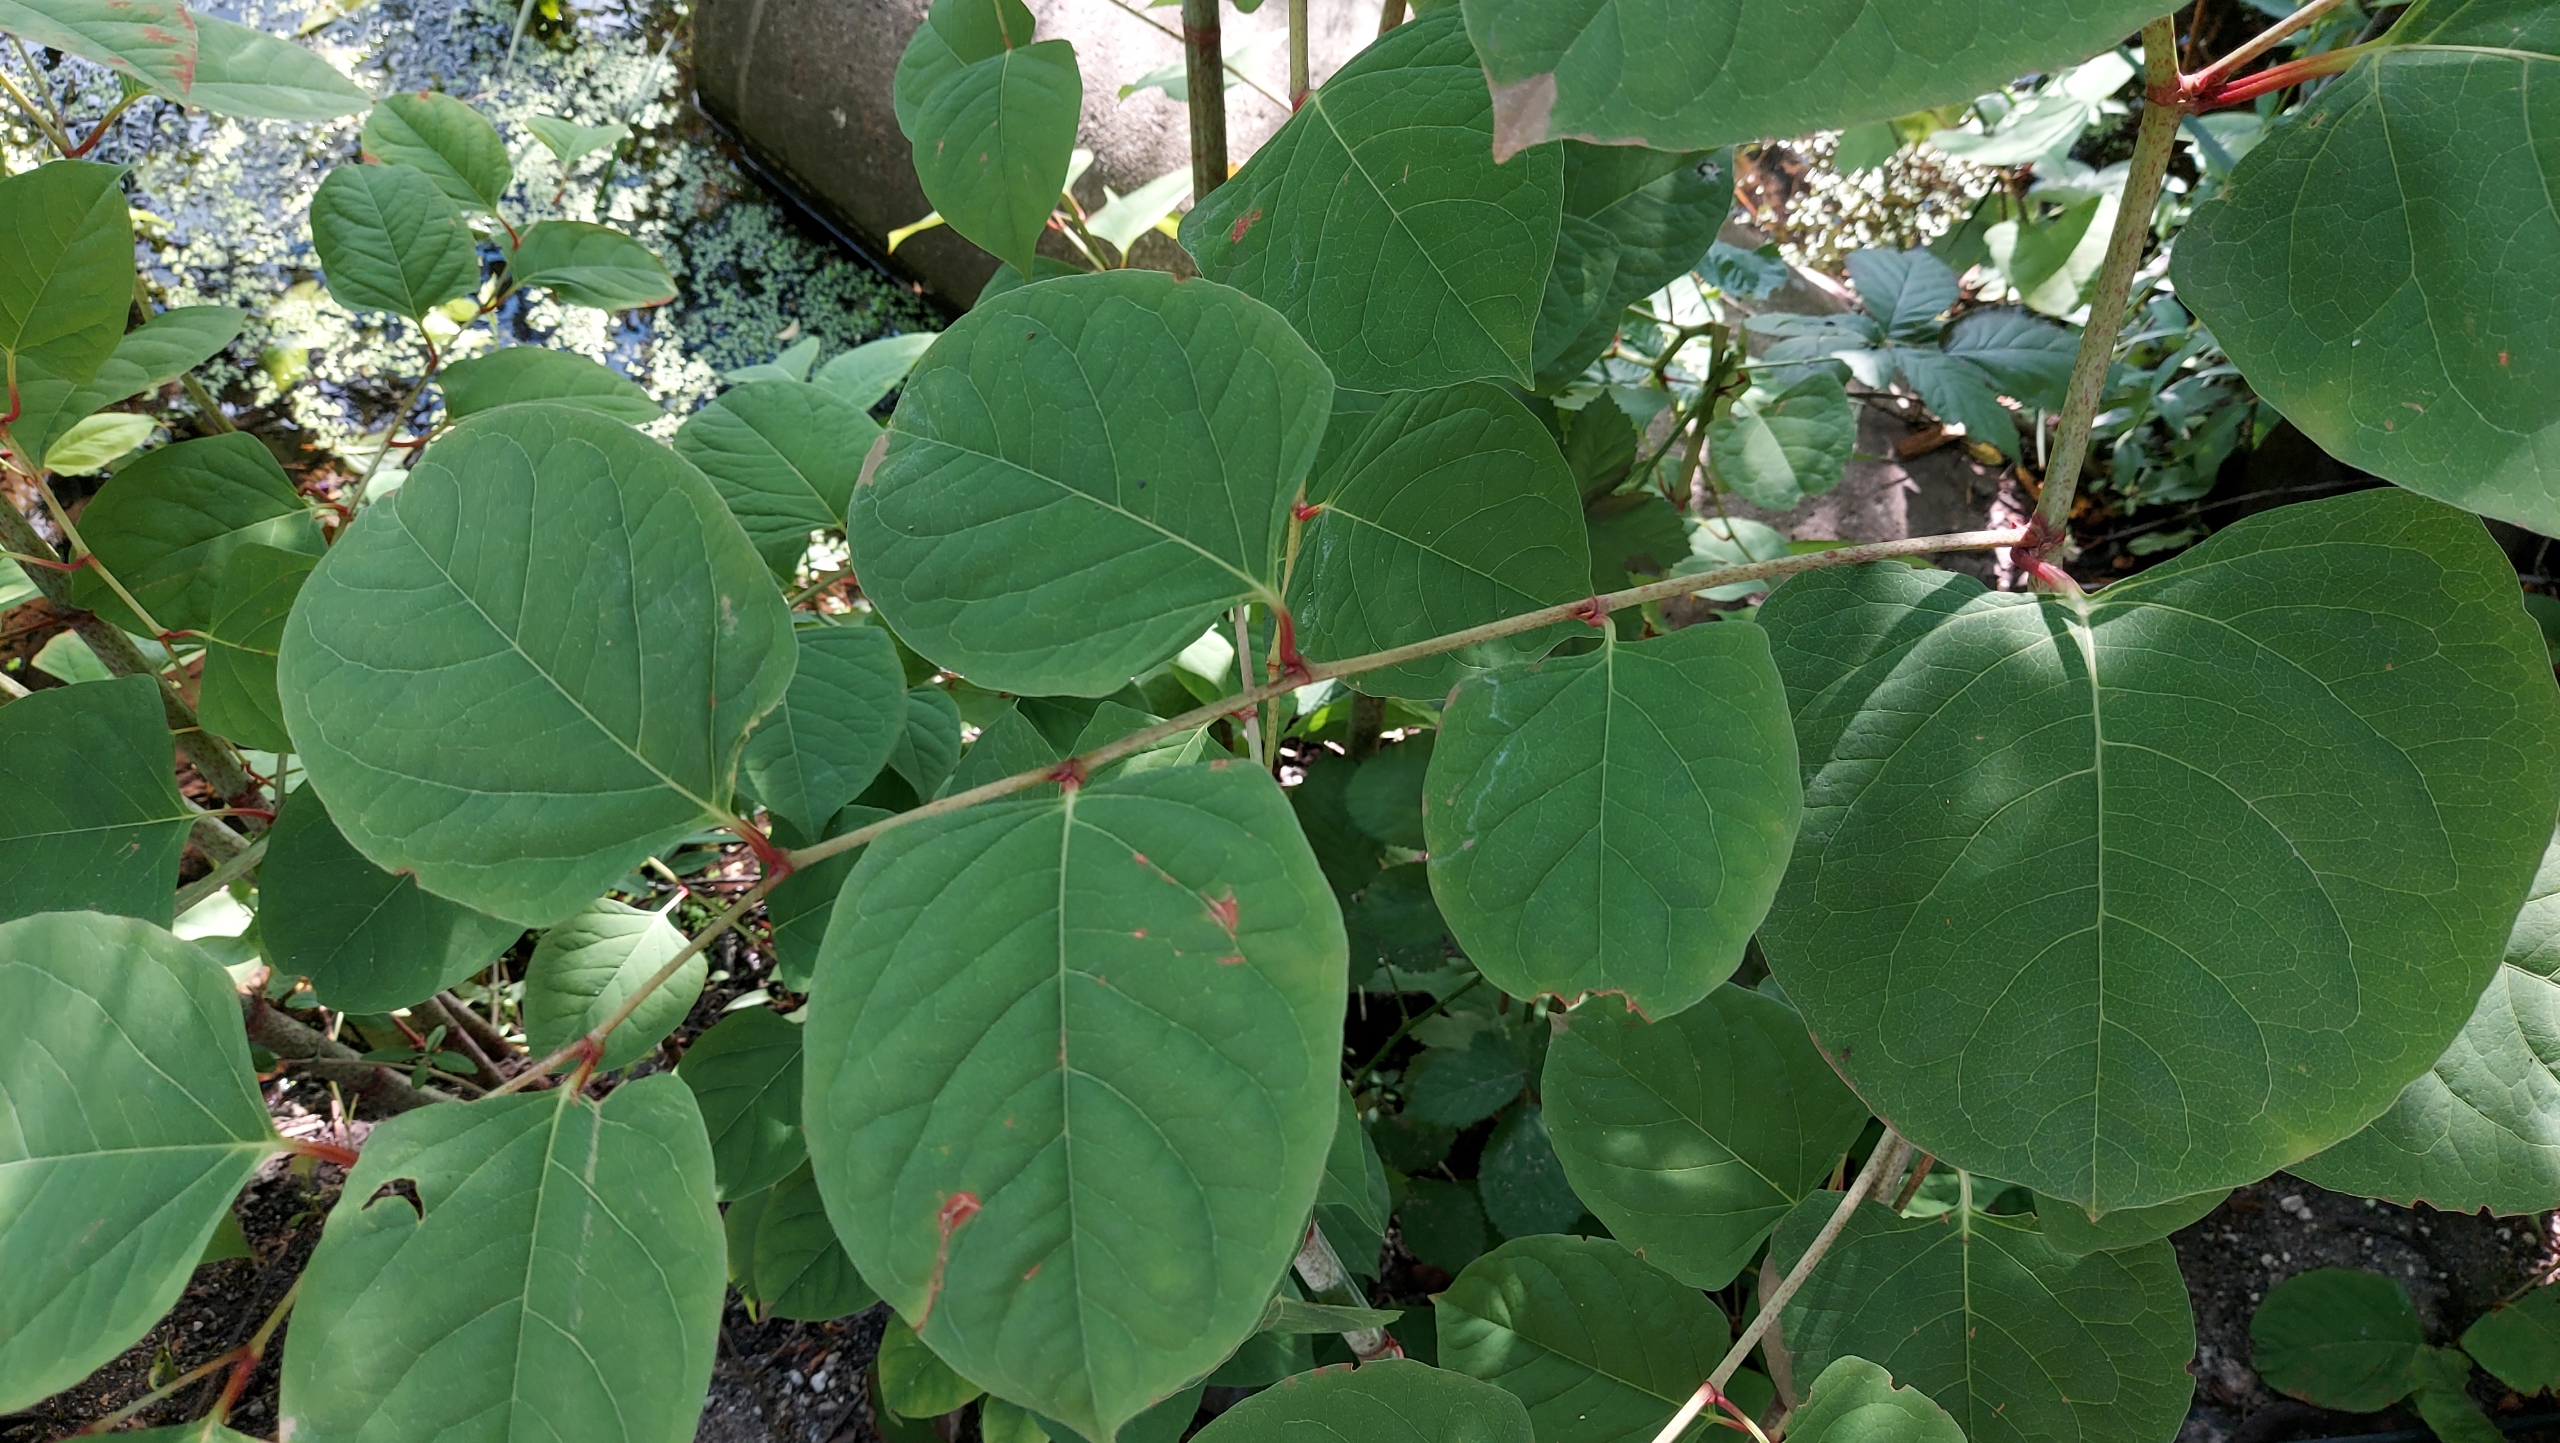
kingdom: Plantae
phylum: Tracheophyta
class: Magnoliopsida
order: Caryophyllales
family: Polygonaceae
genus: Reynoutria
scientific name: Reynoutria japonica
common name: Japan-pileurt
